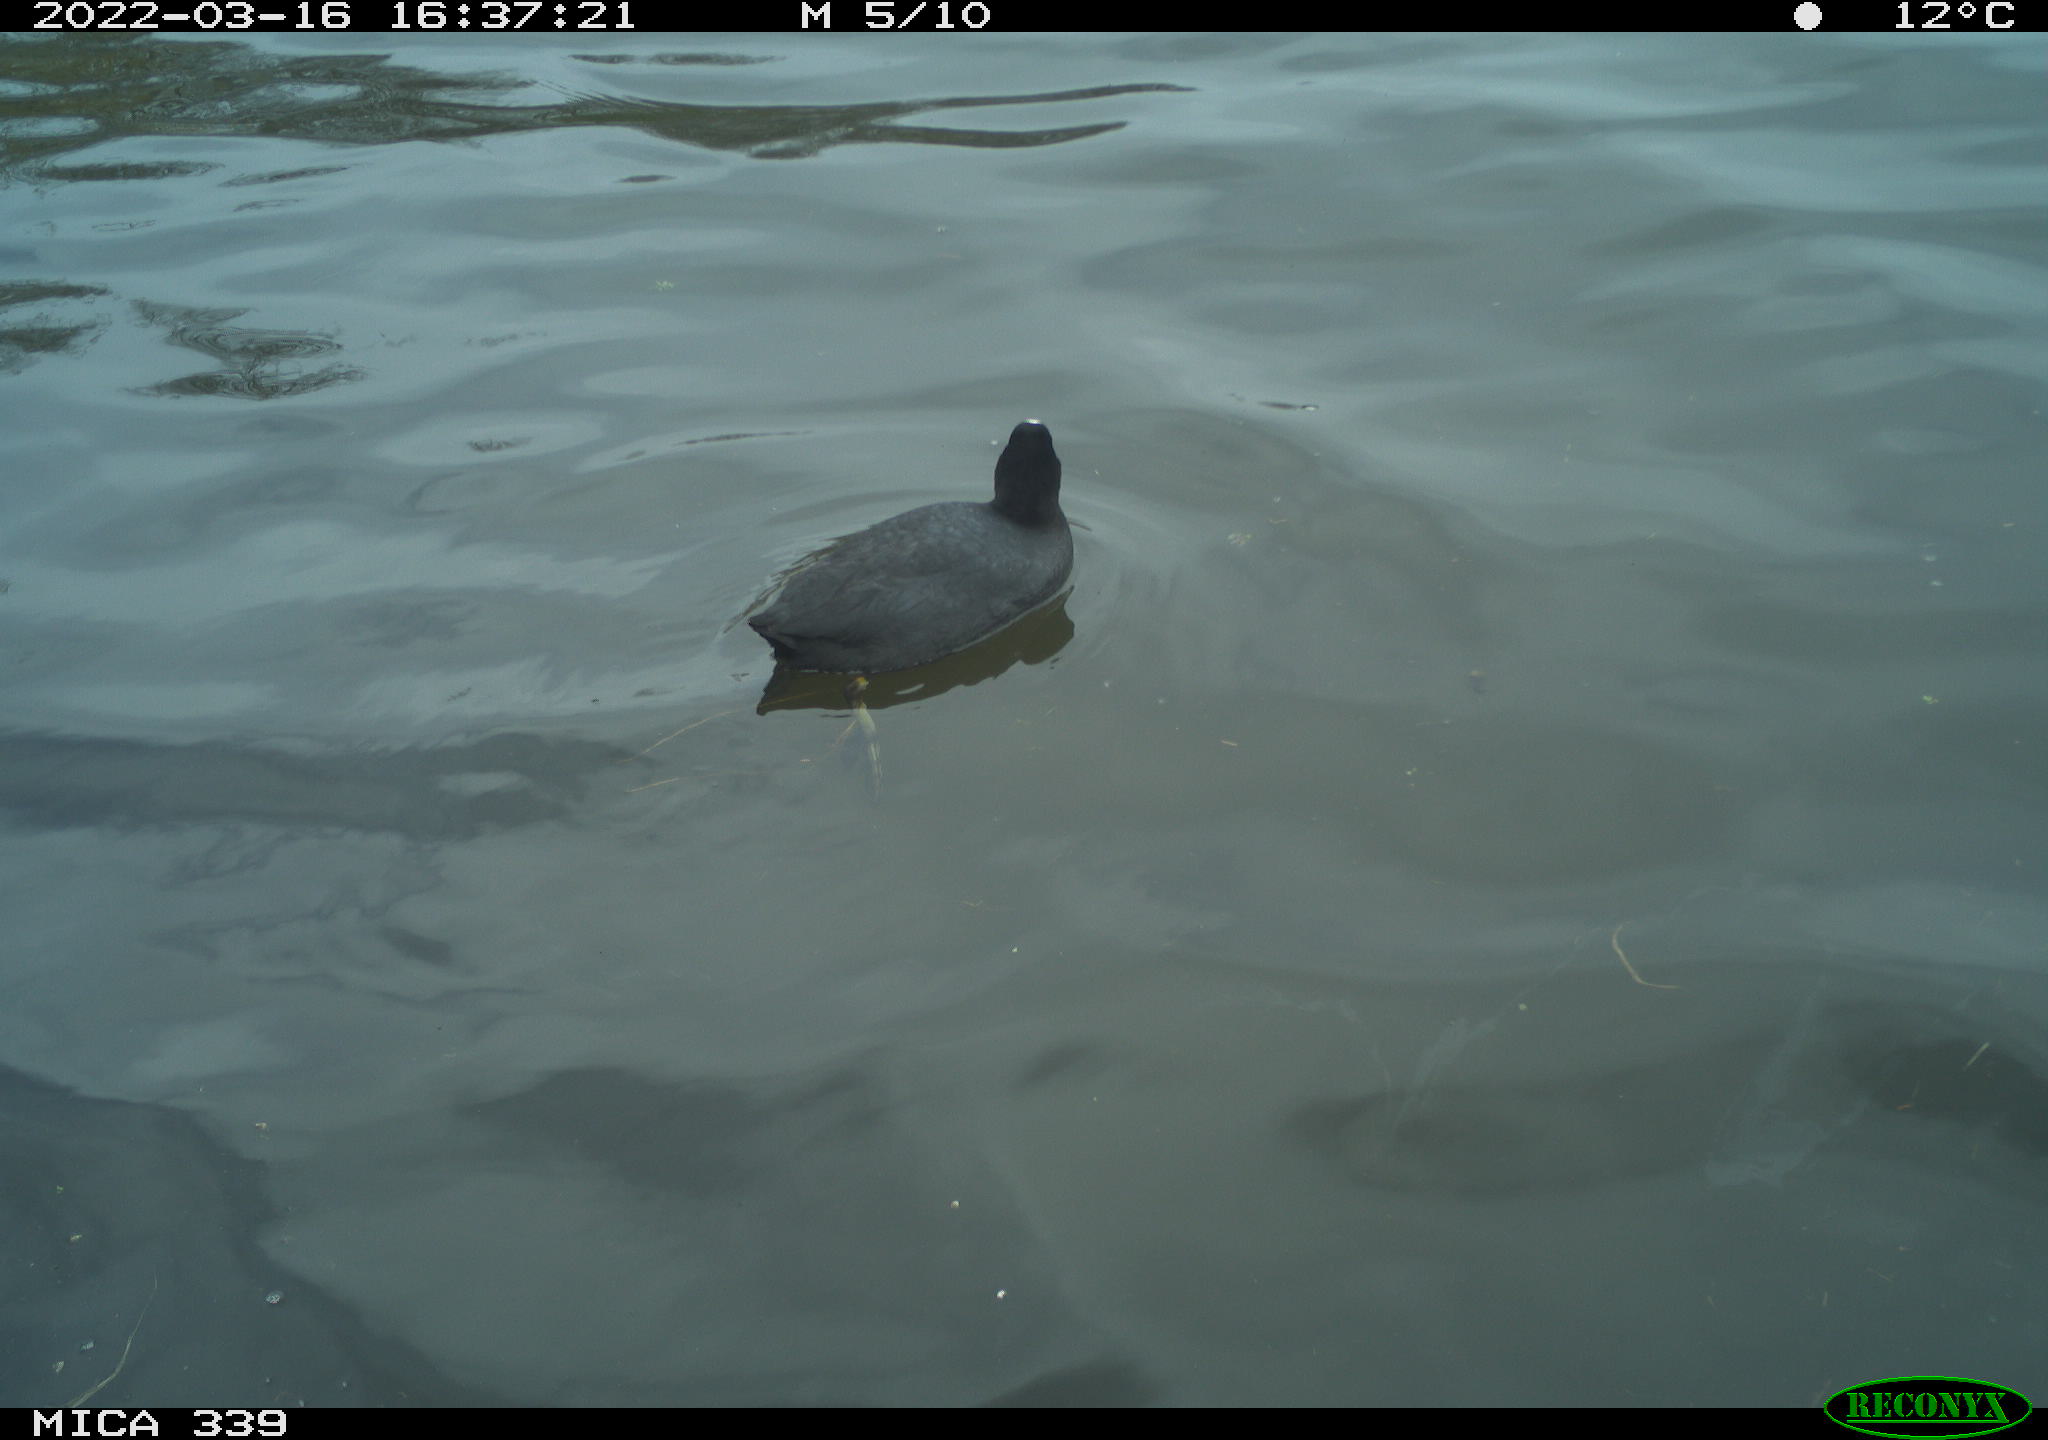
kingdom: Animalia
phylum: Chordata
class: Aves
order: Gruiformes
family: Rallidae
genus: Fulica
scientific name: Fulica atra
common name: Eurasian coot
